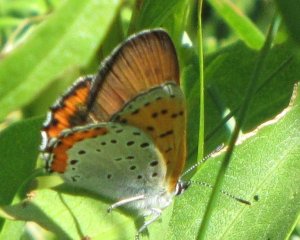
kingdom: Animalia
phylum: Arthropoda
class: Insecta
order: Lepidoptera
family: Sesiidae
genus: Sesia
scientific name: Sesia Lycaena hyllus
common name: Bronze Copper
